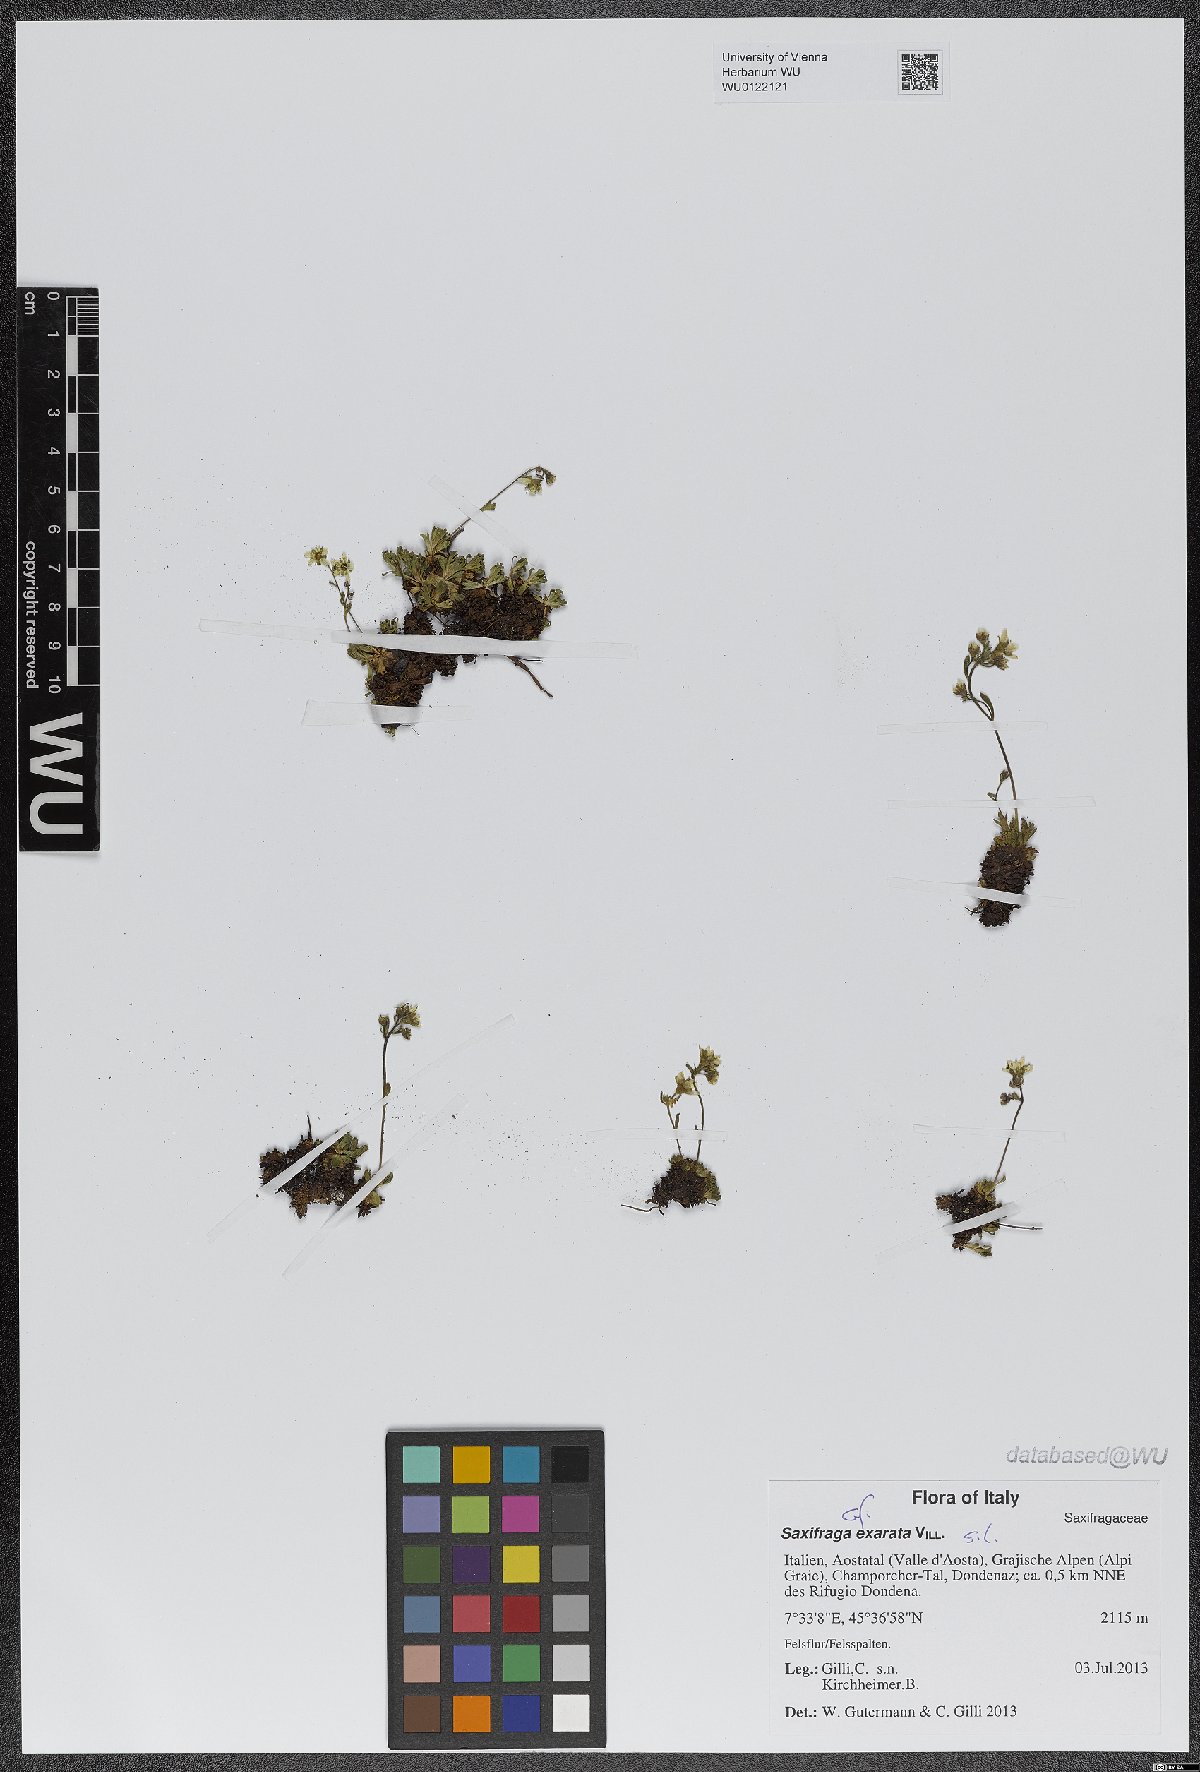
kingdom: Plantae
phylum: Tracheophyta
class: Magnoliopsida
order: Saxifragales
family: Saxifragaceae
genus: Saxifraga
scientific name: Saxifraga exarata
